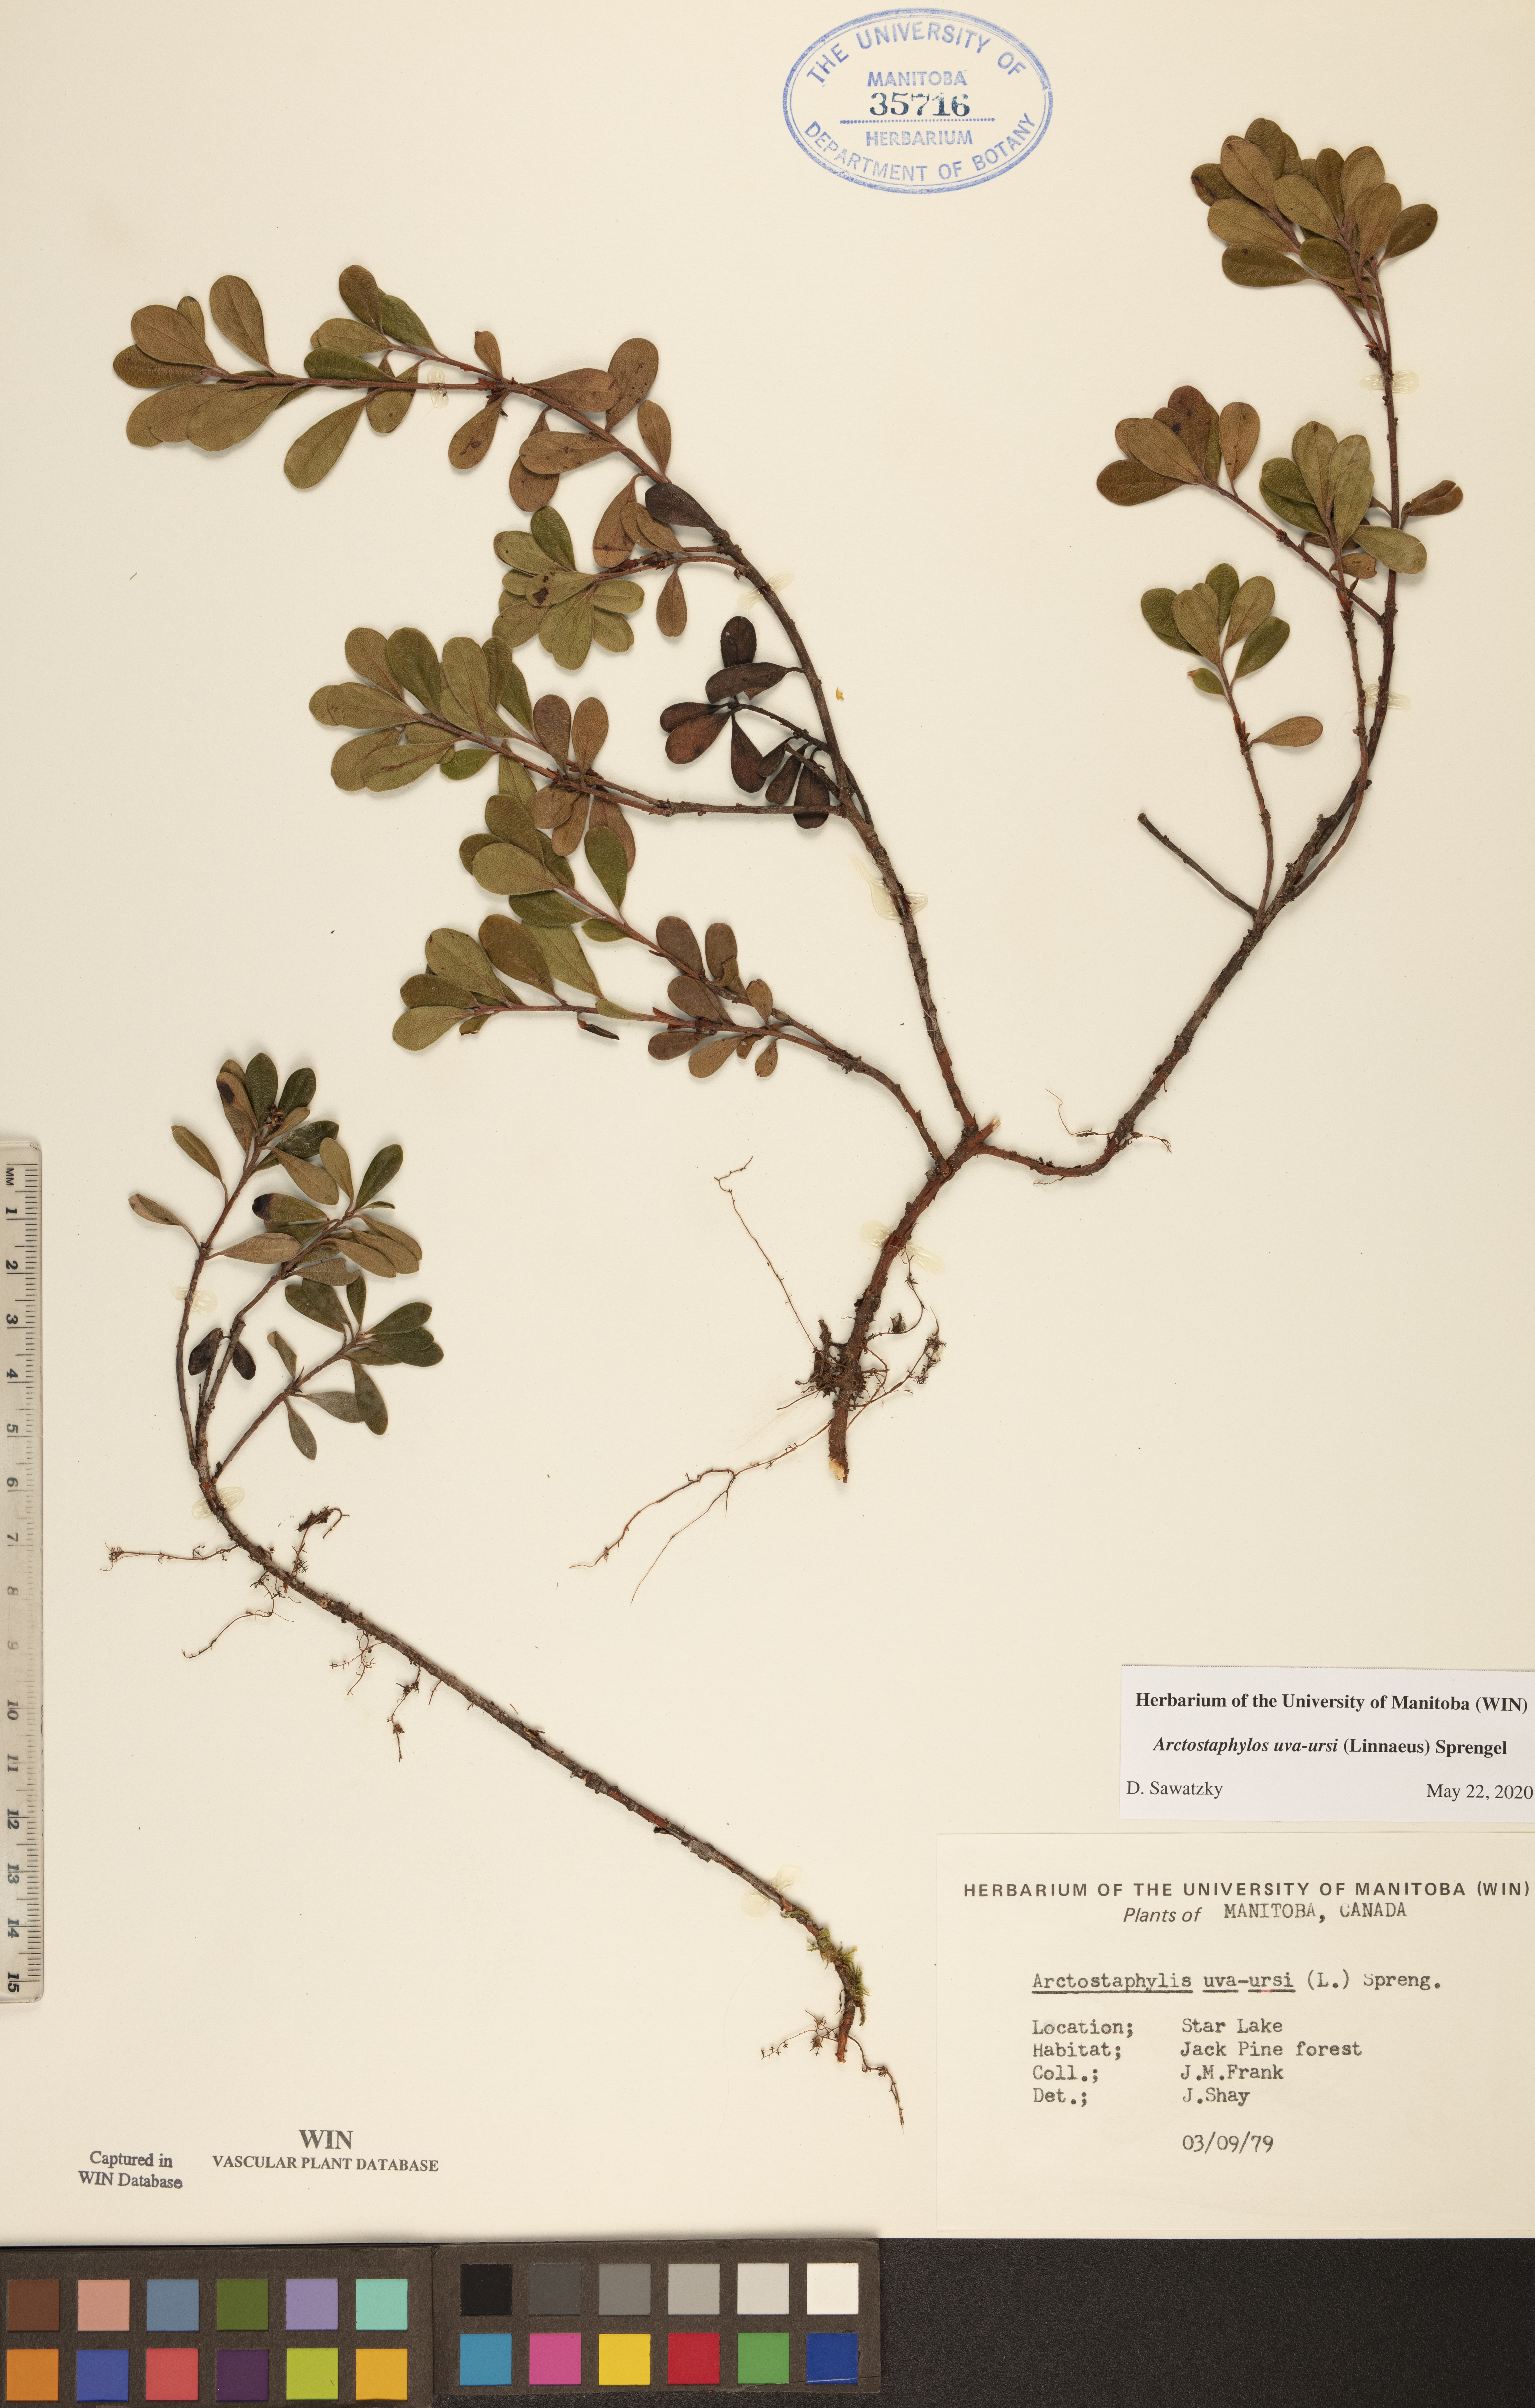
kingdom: Plantae
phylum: Tracheophyta
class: Magnoliopsida
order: Ericales
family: Ericaceae
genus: Arctostaphylos
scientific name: Arctostaphylos uva-ursi
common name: Bearberry
